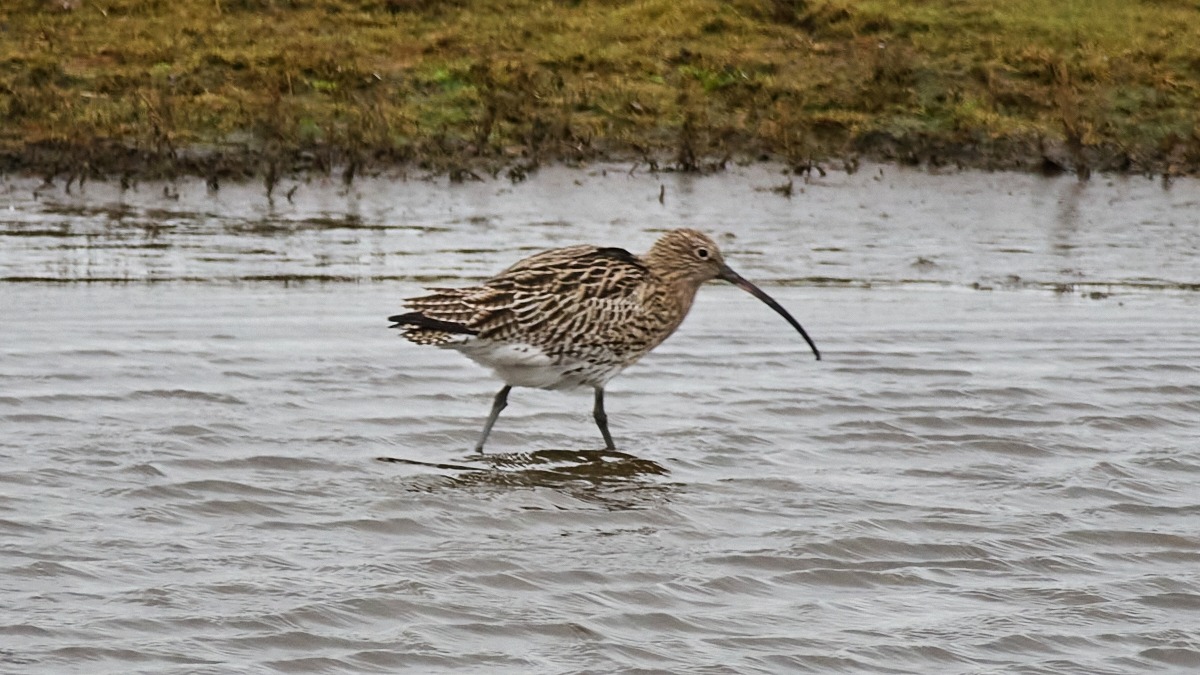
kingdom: Animalia
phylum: Chordata
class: Aves
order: Charadriiformes
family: Scolopacidae
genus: Numenius
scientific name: Numenius arquata
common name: Storspove
